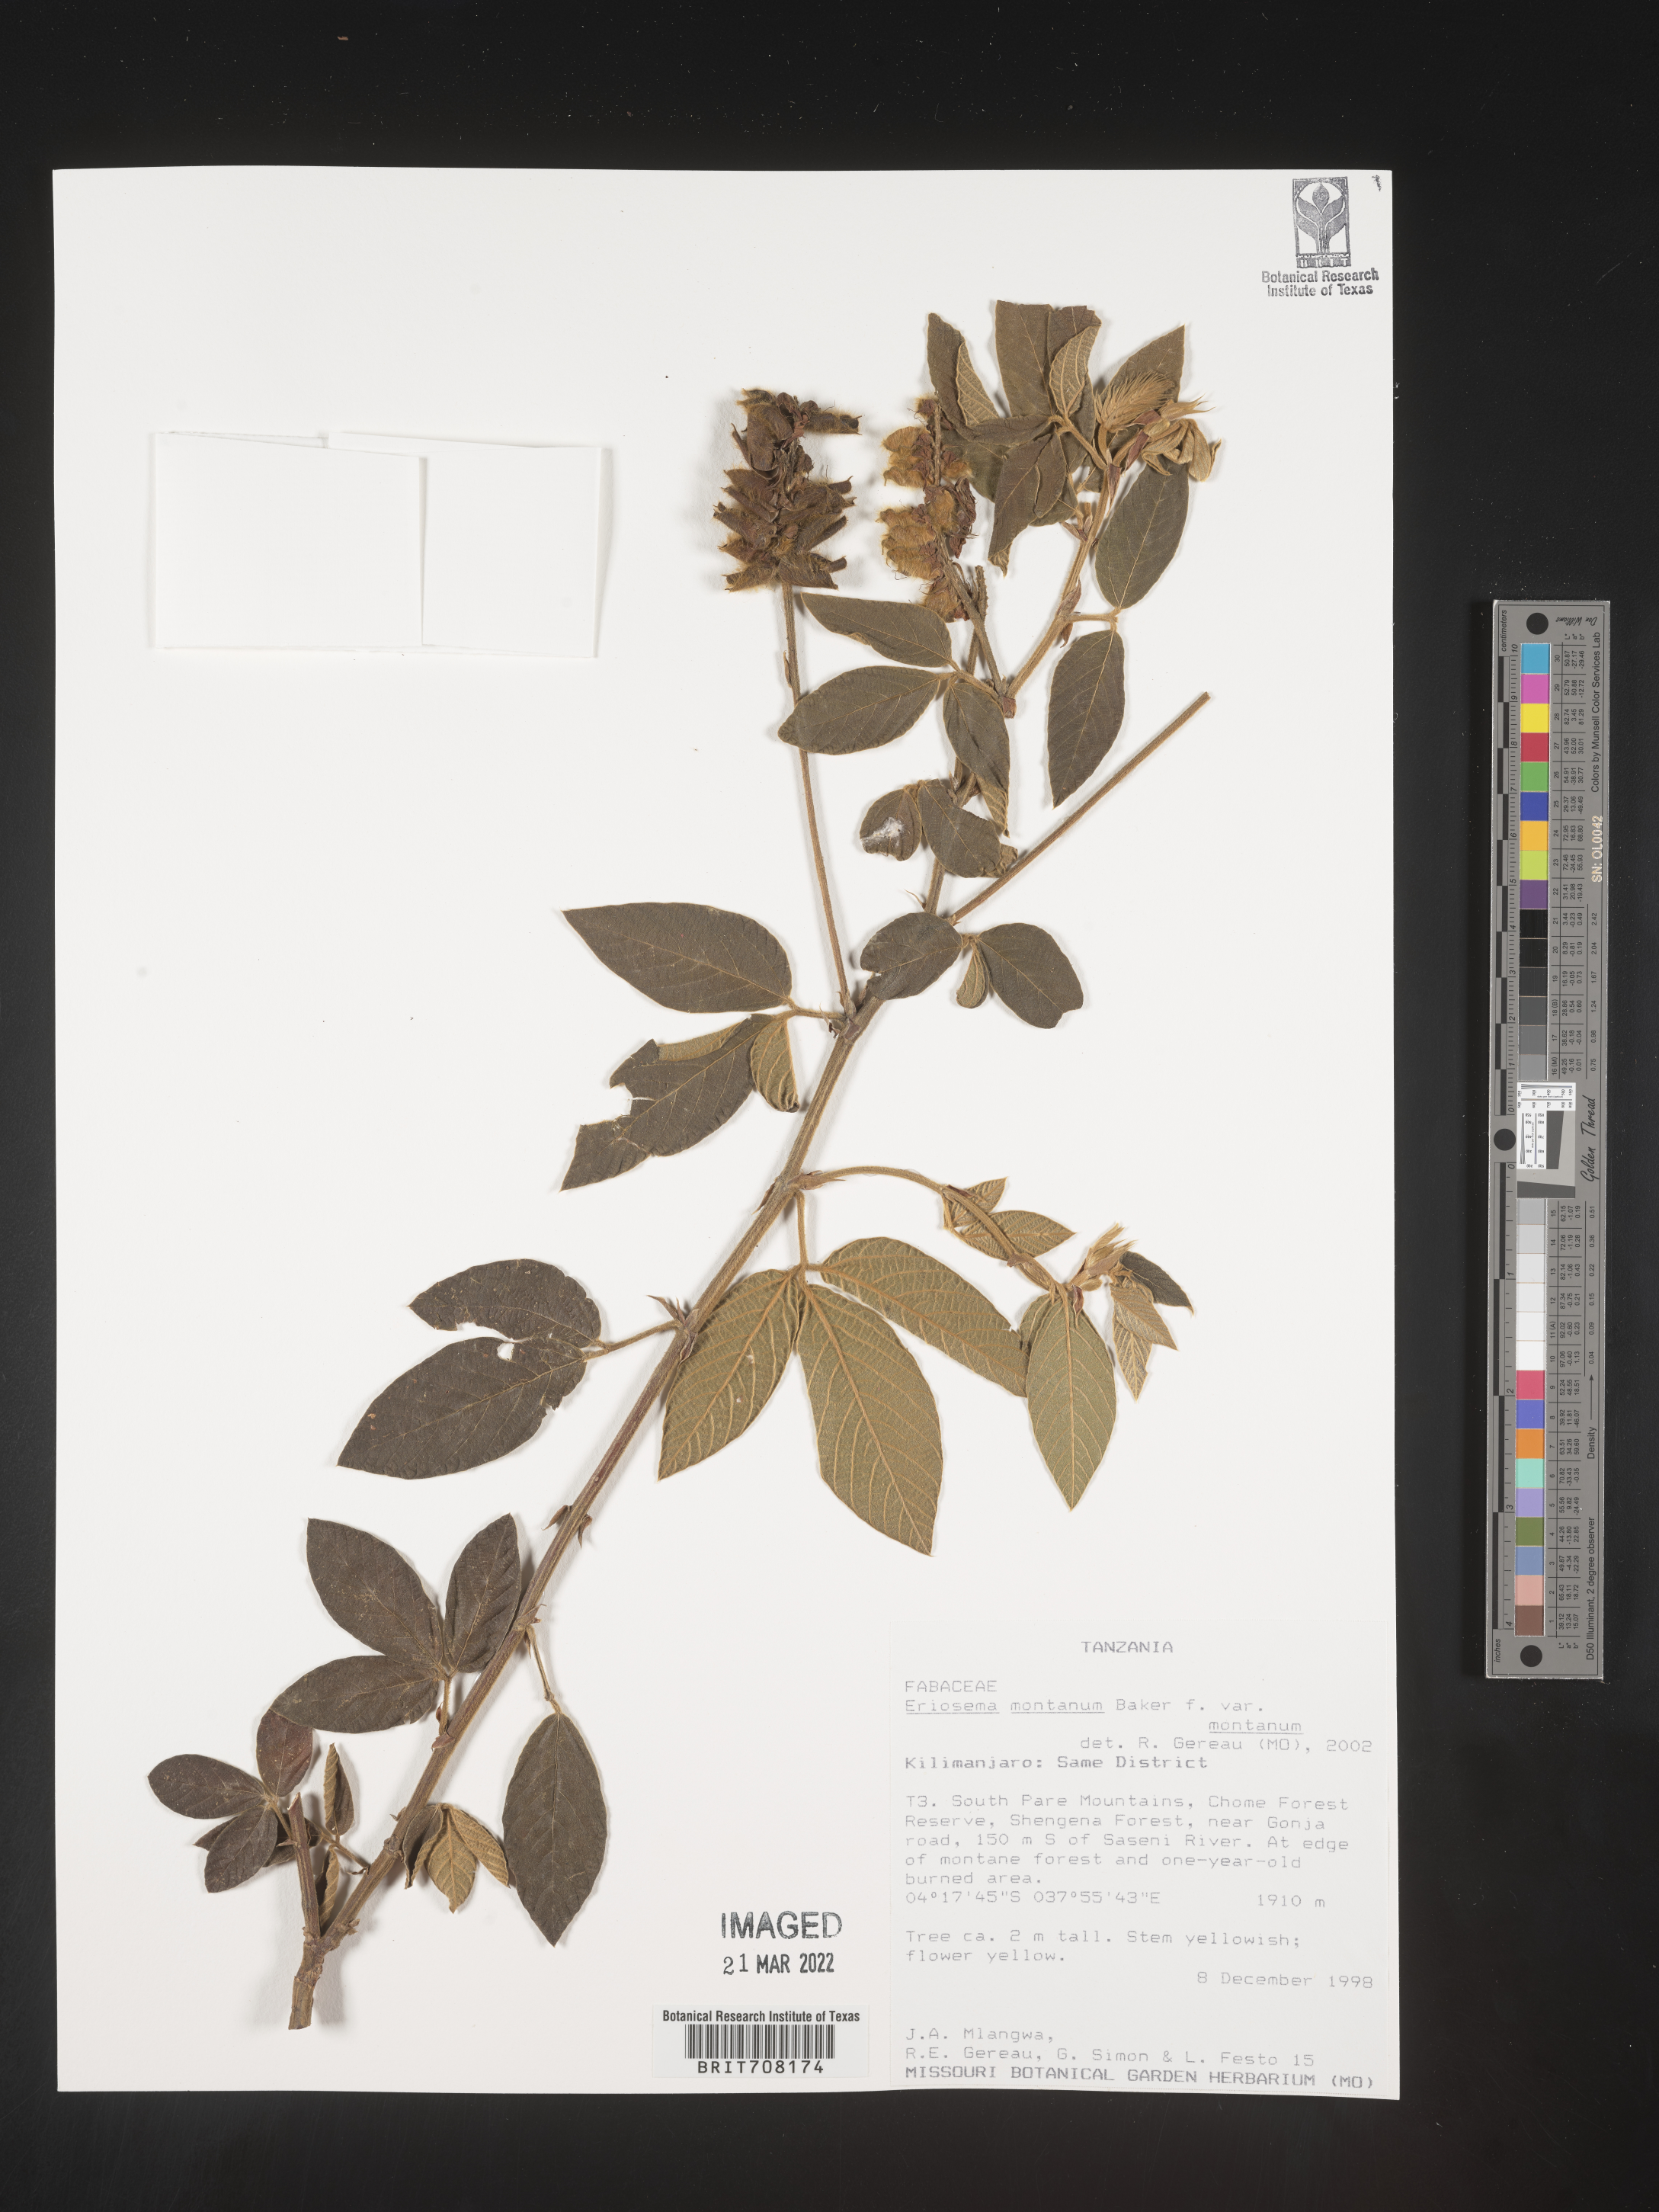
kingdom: Plantae
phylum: Tracheophyta
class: Magnoliopsida
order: Fabales
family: Fabaceae
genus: Eriosema
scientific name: Eriosema
